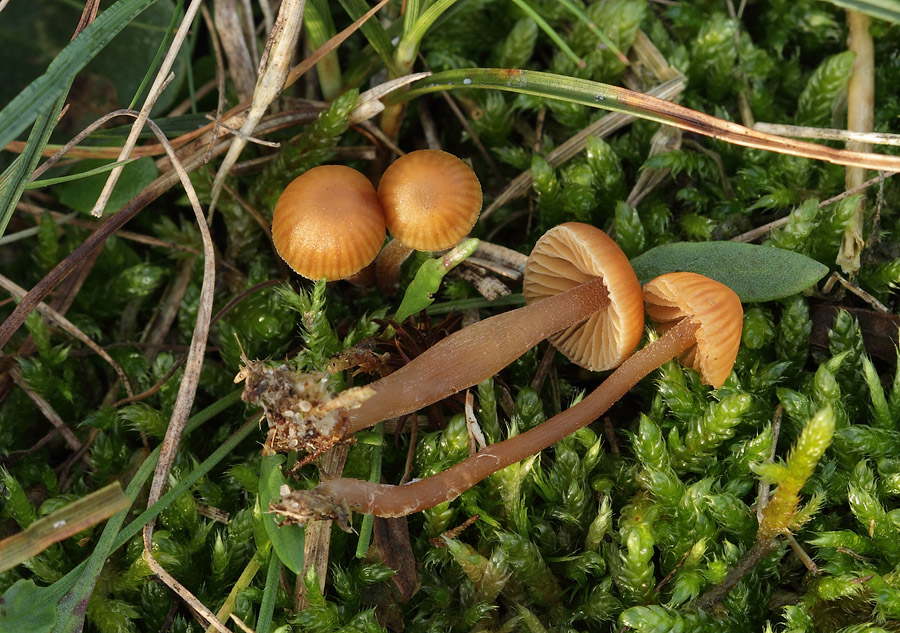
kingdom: Fungi
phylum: Basidiomycota
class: Agaricomycetes
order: Agaricales
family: Hymenogastraceae
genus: Galerina
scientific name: Galerina vittiformis
